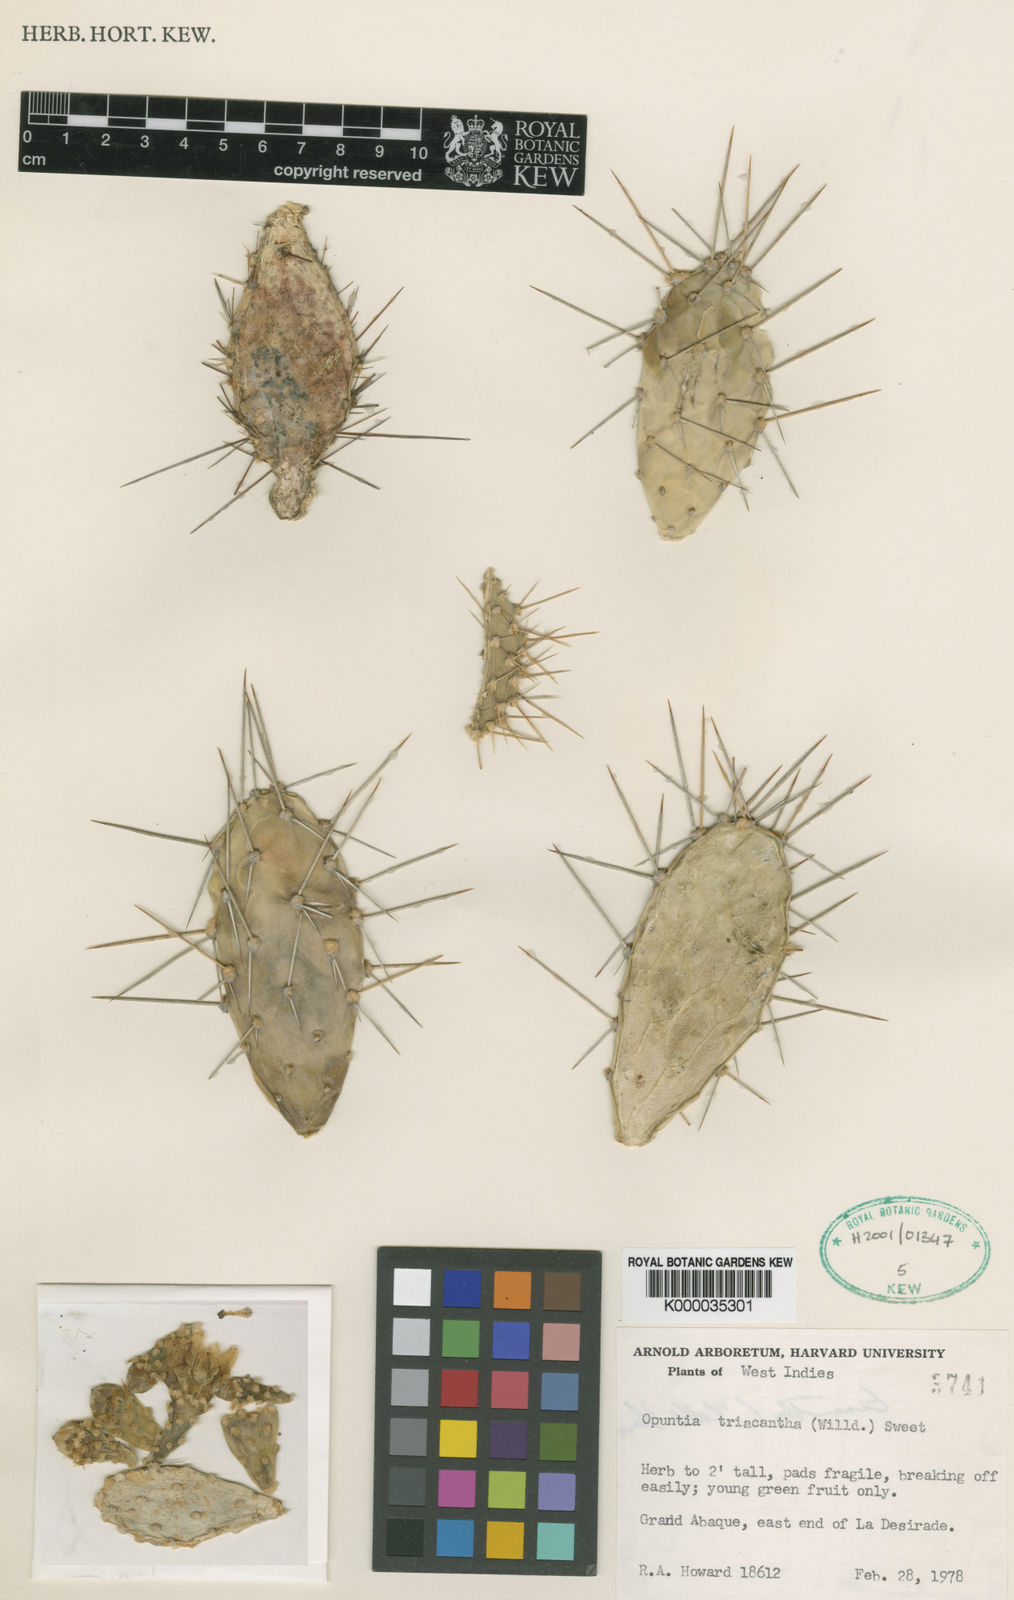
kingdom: Plantae
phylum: Tracheophyta
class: Magnoliopsida
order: Caryophyllales
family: Cactaceae
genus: Opuntia
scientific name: Opuntia
